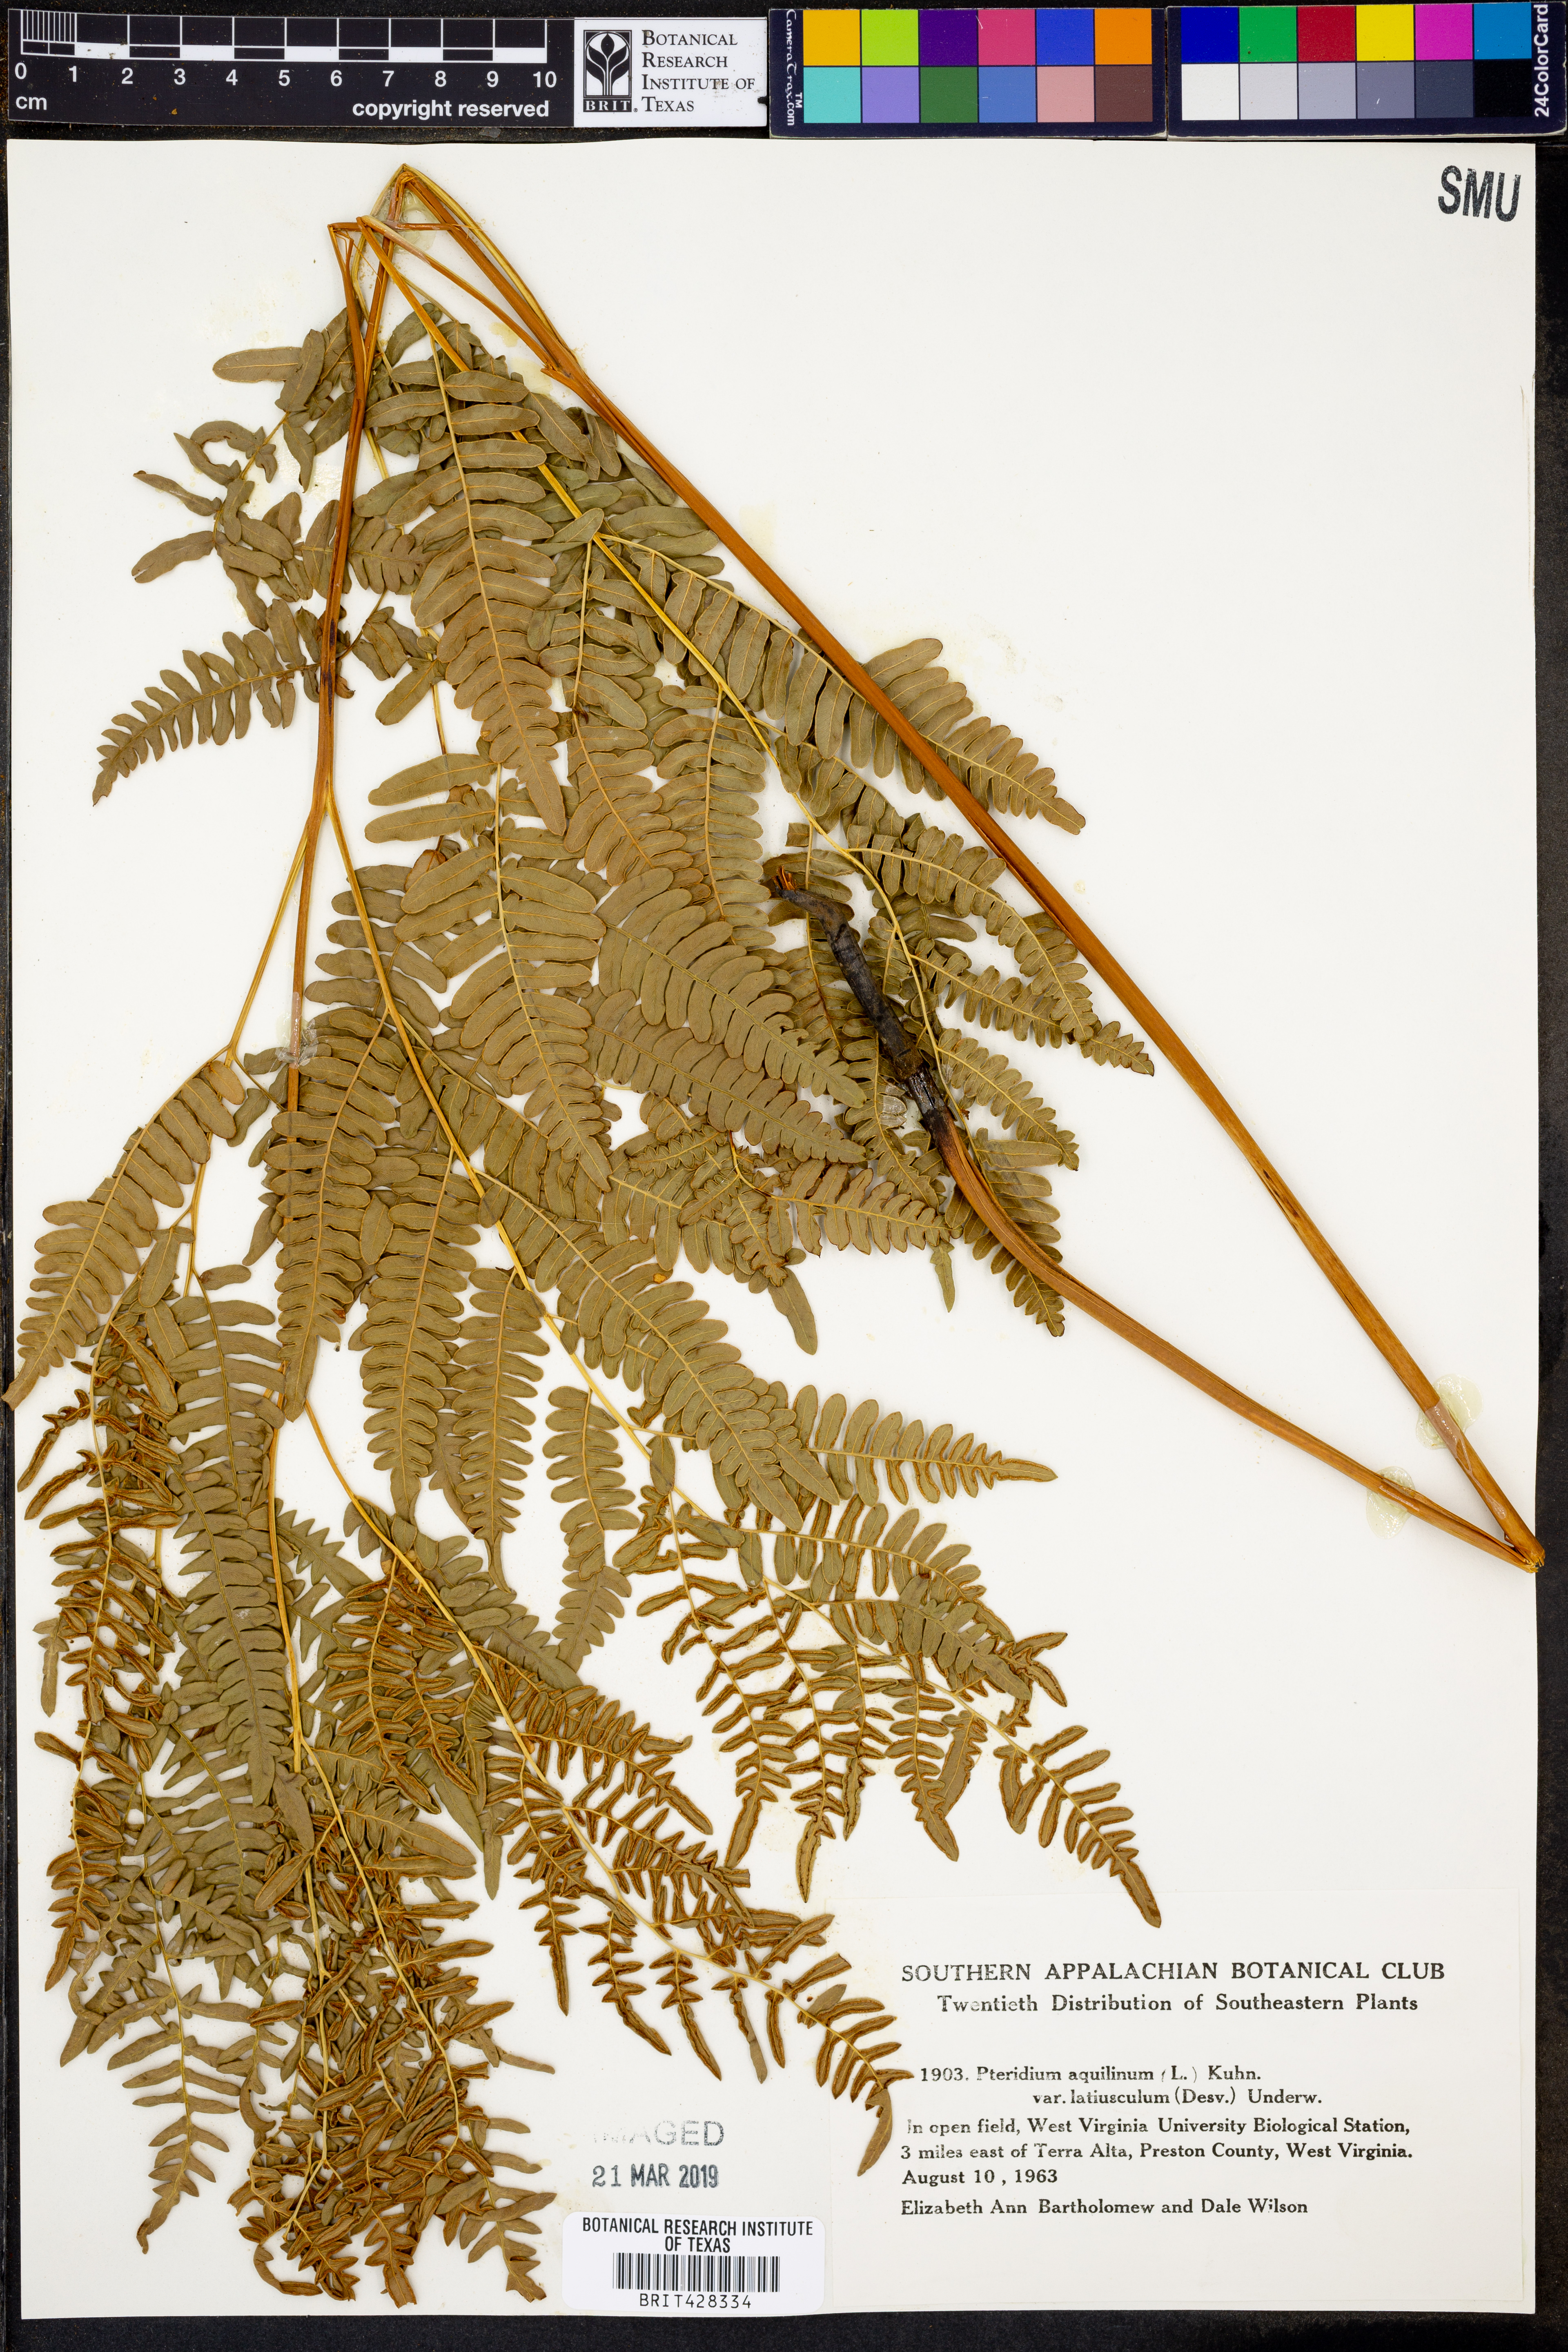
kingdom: Plantae
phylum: Tracheophyta
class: Polypodiopsida
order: Polypodiales
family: Dennstaedtiaceae
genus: Pteridium
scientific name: Pteridium aquilinum
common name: Bracken
